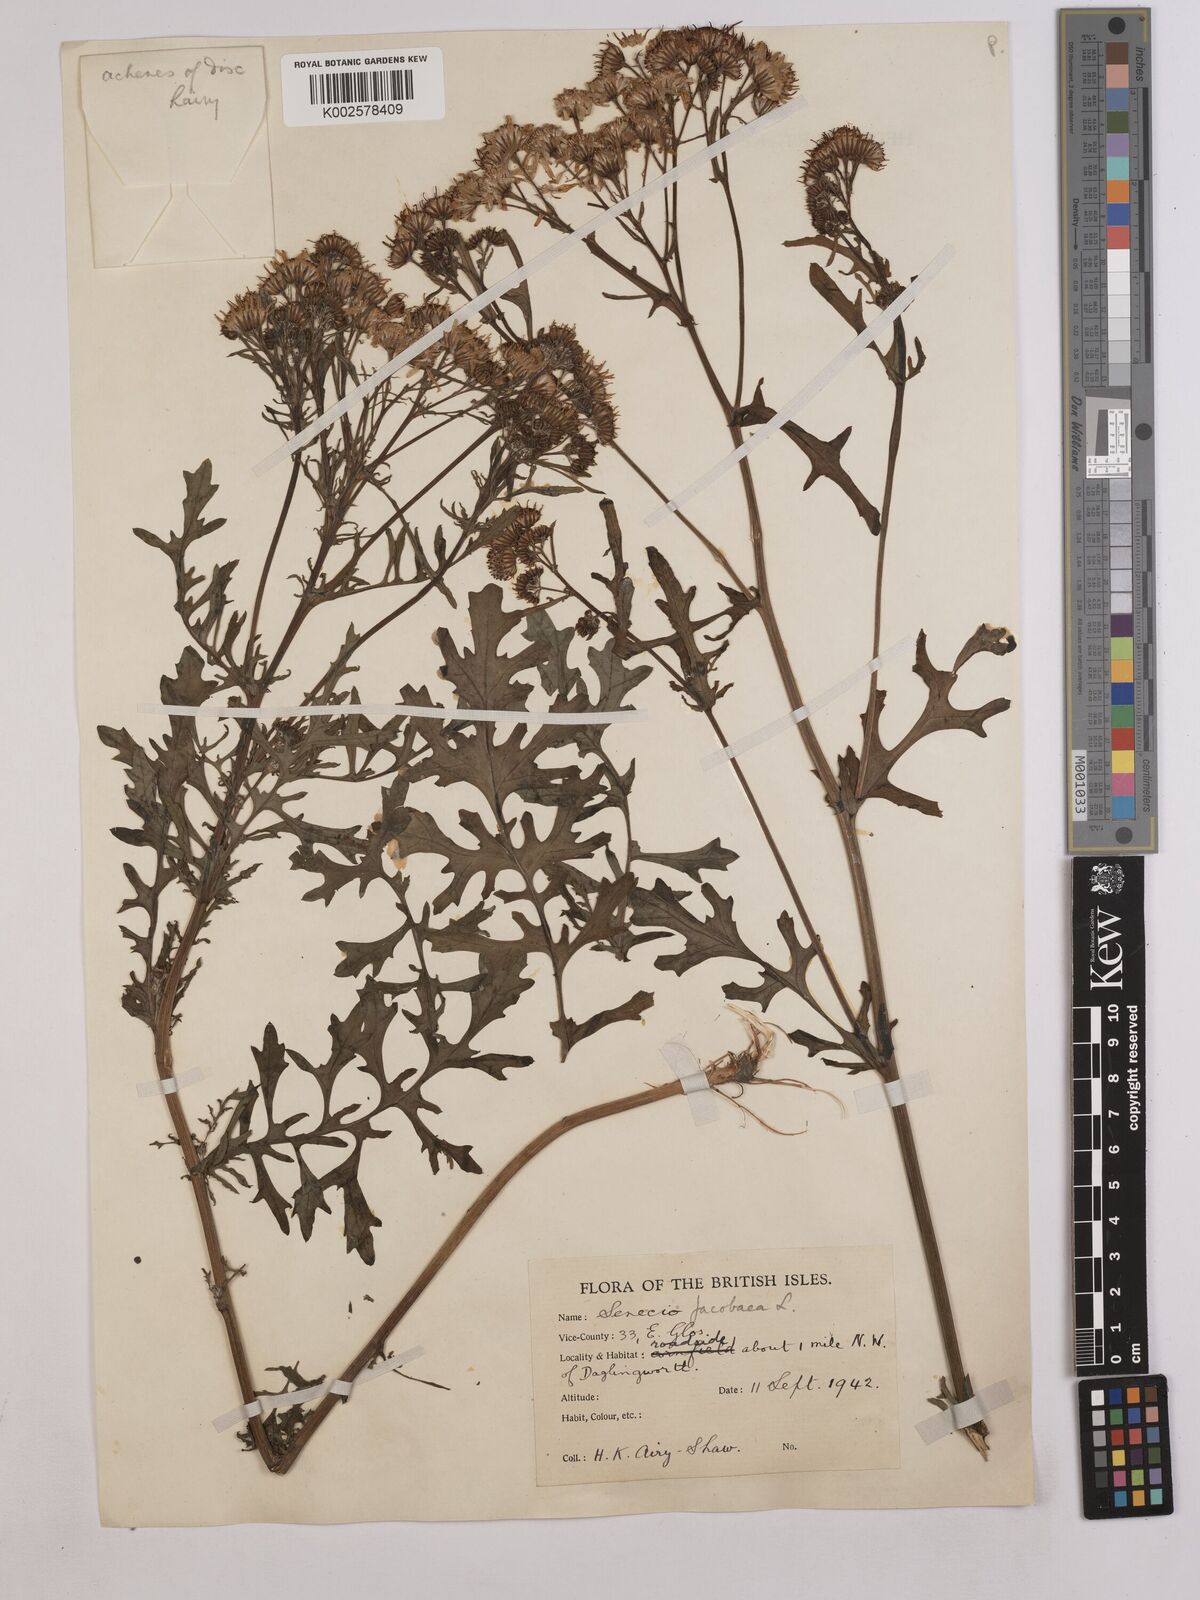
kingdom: Plantae
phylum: Tracheophyta
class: Magnoliopsida
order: Asterales
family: Asteraceae
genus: Jacobaea
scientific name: Jacobaea vulgaris
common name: Stinking willie
